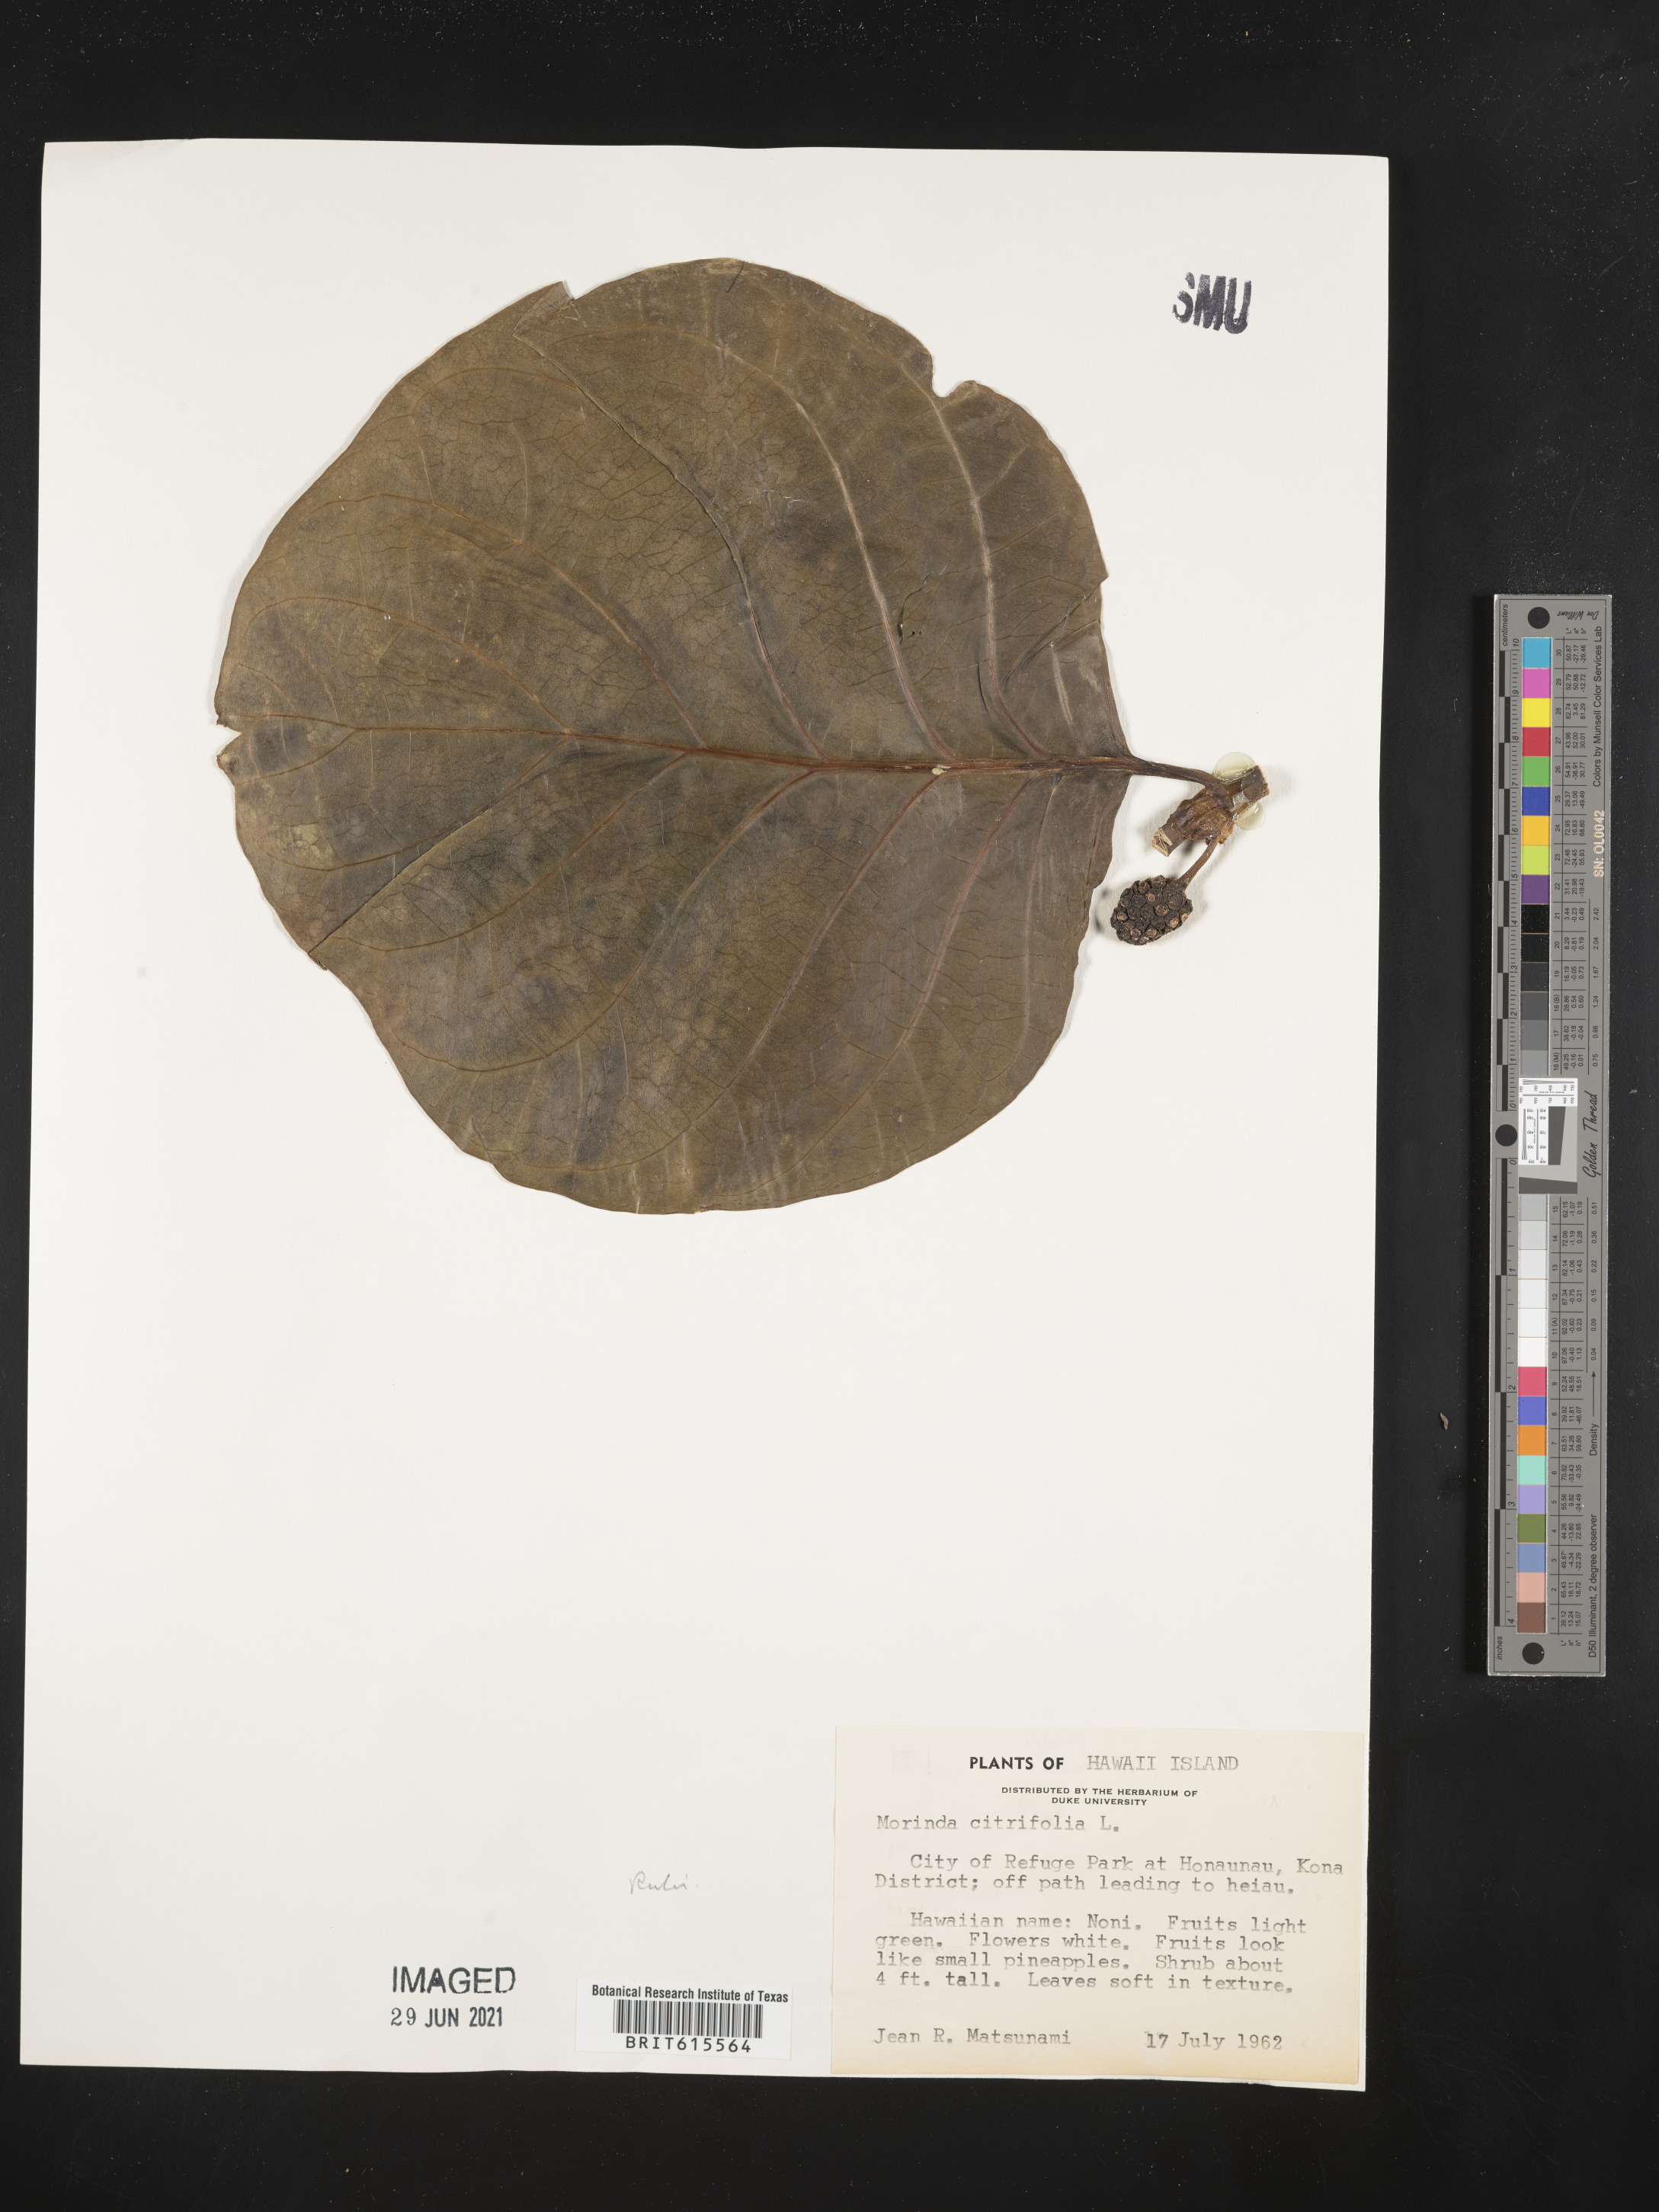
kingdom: Plantae
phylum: Tracheophyta
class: Magnoliopsida
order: Gentianales
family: Rubiaceae
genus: Morinda
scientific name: Morinda citrifolia
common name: Indian-mulberry
